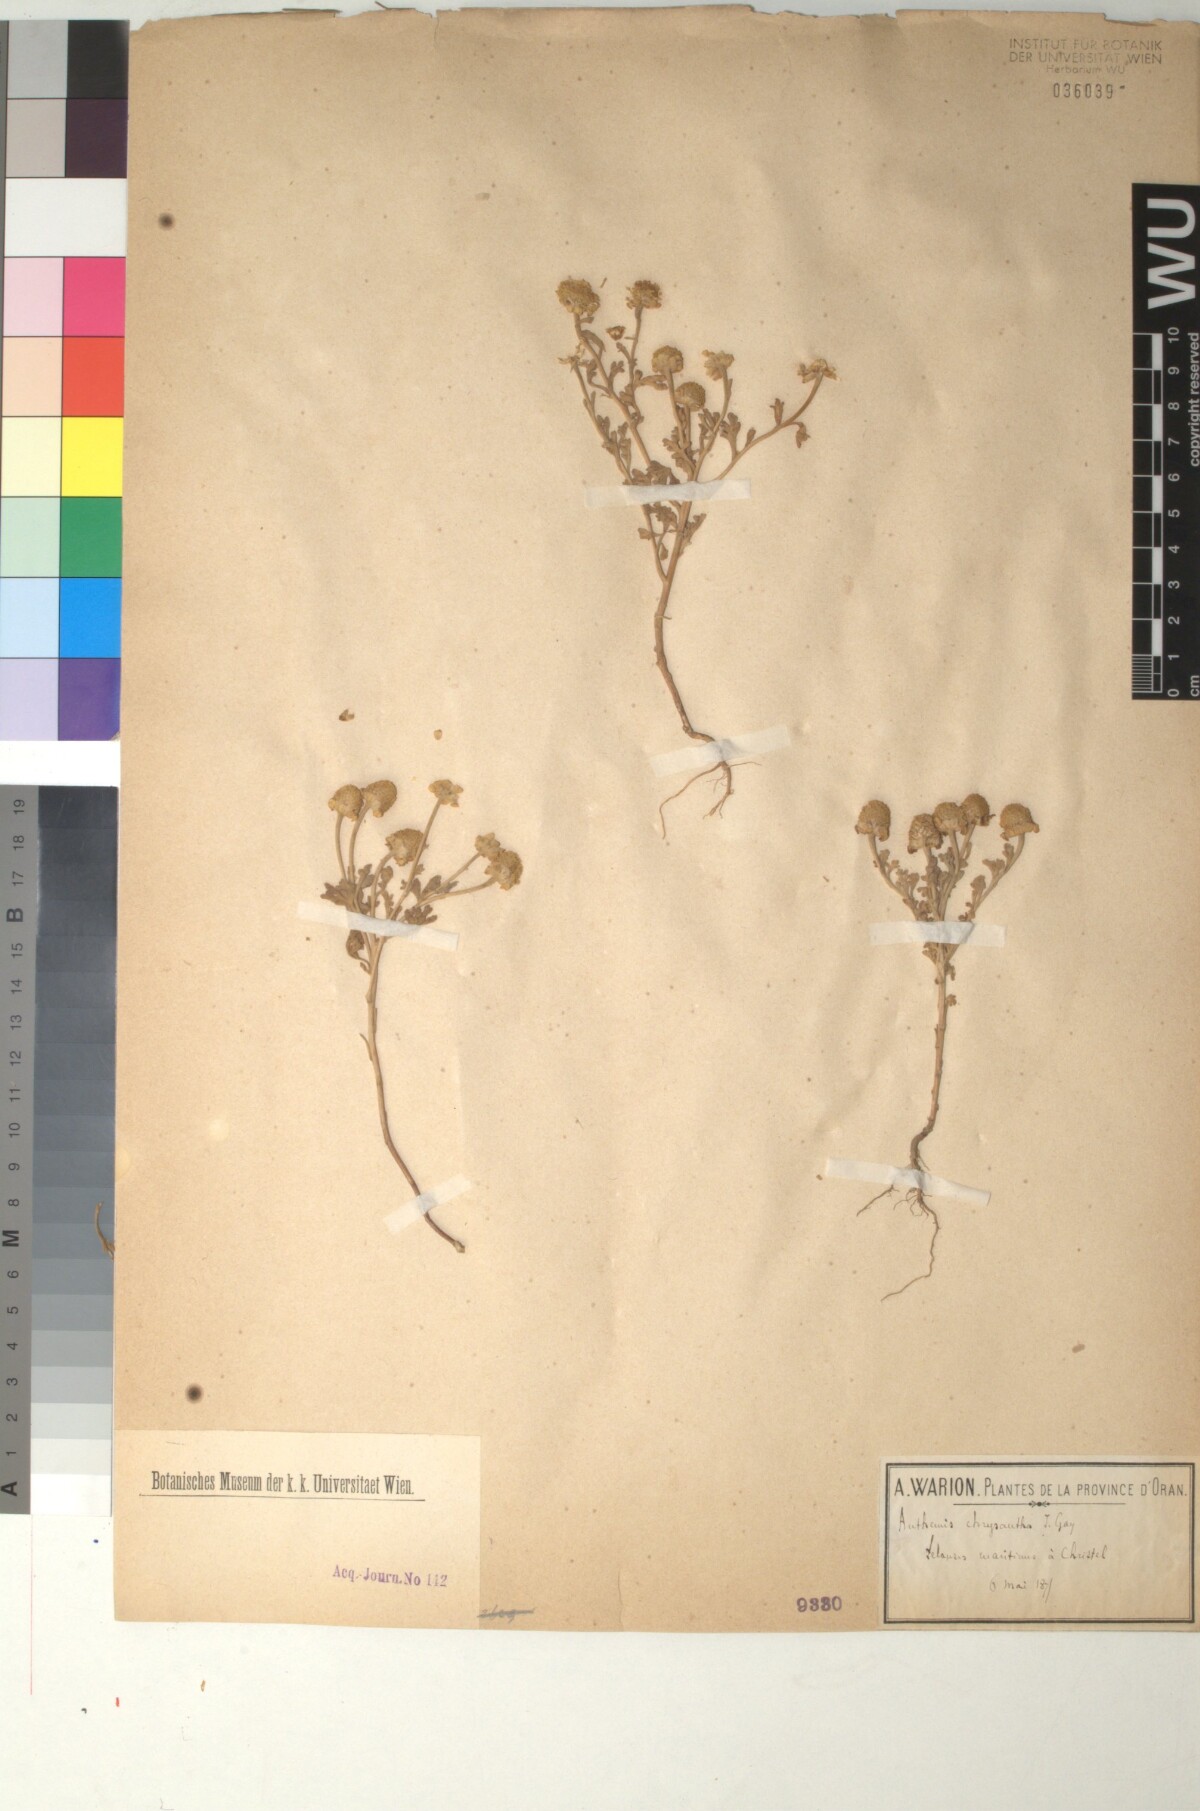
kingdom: Plantae
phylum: Tracheophyta
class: Magnoliopsida
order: Asterales
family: Asteraceae
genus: Anthemis
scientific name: Anthemis chrysantha
